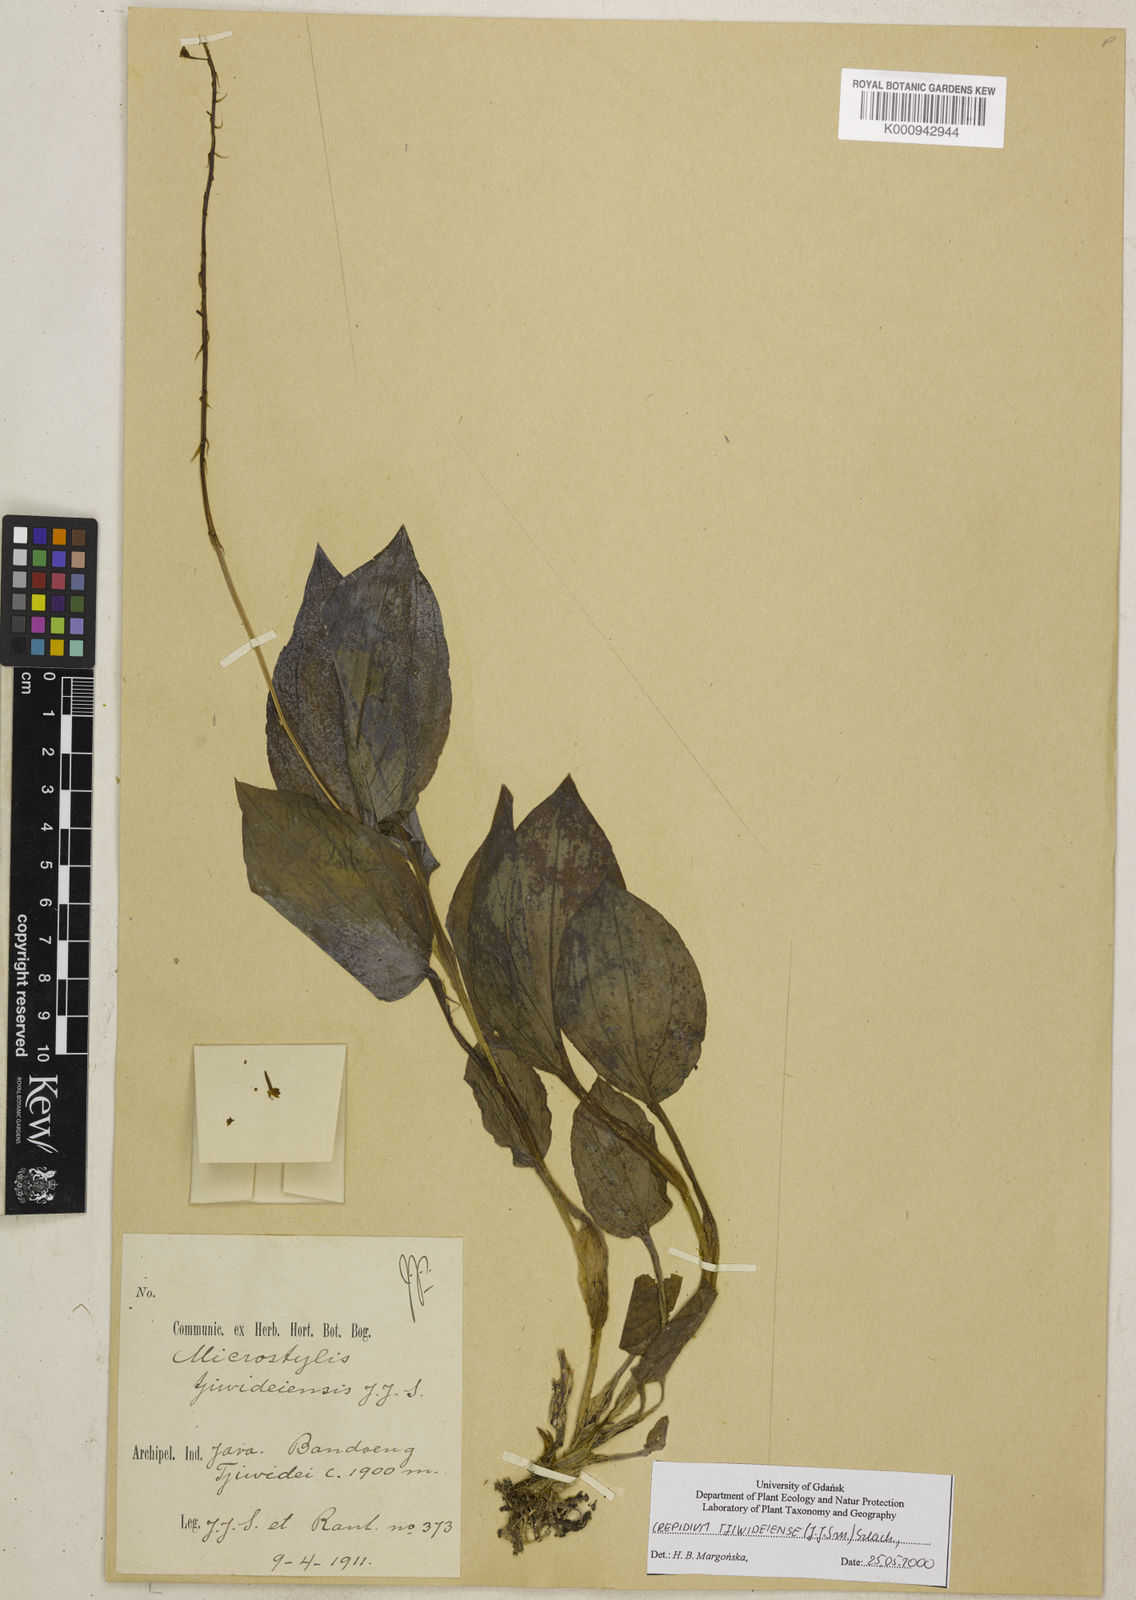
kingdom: Plantae
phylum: Tracheophyta
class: Liliopsida
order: Asparagales
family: Orchidaceae
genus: Crepidium
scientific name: Crepidium tjiwideiense
